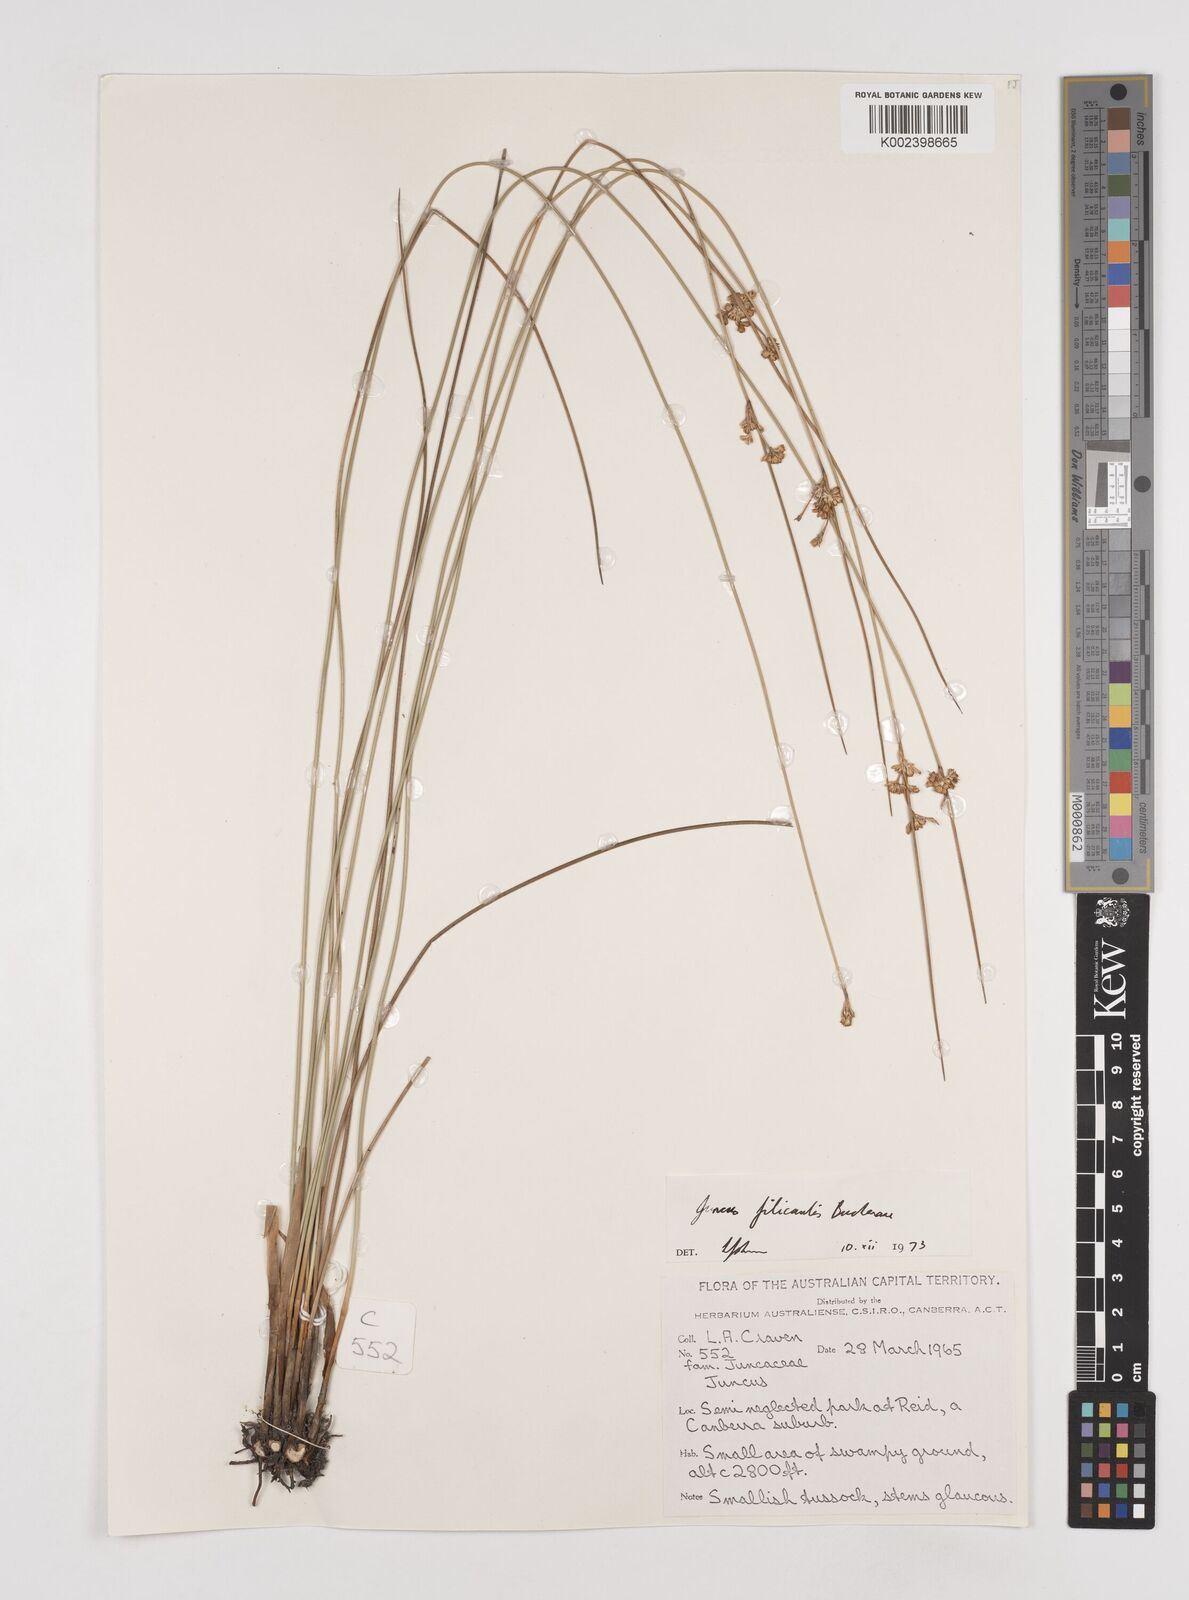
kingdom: Plantae
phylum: Tracheophyta
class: Liliopsida
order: Poales
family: Juncaceae
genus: Juncus
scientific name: Juncus filicaulis
